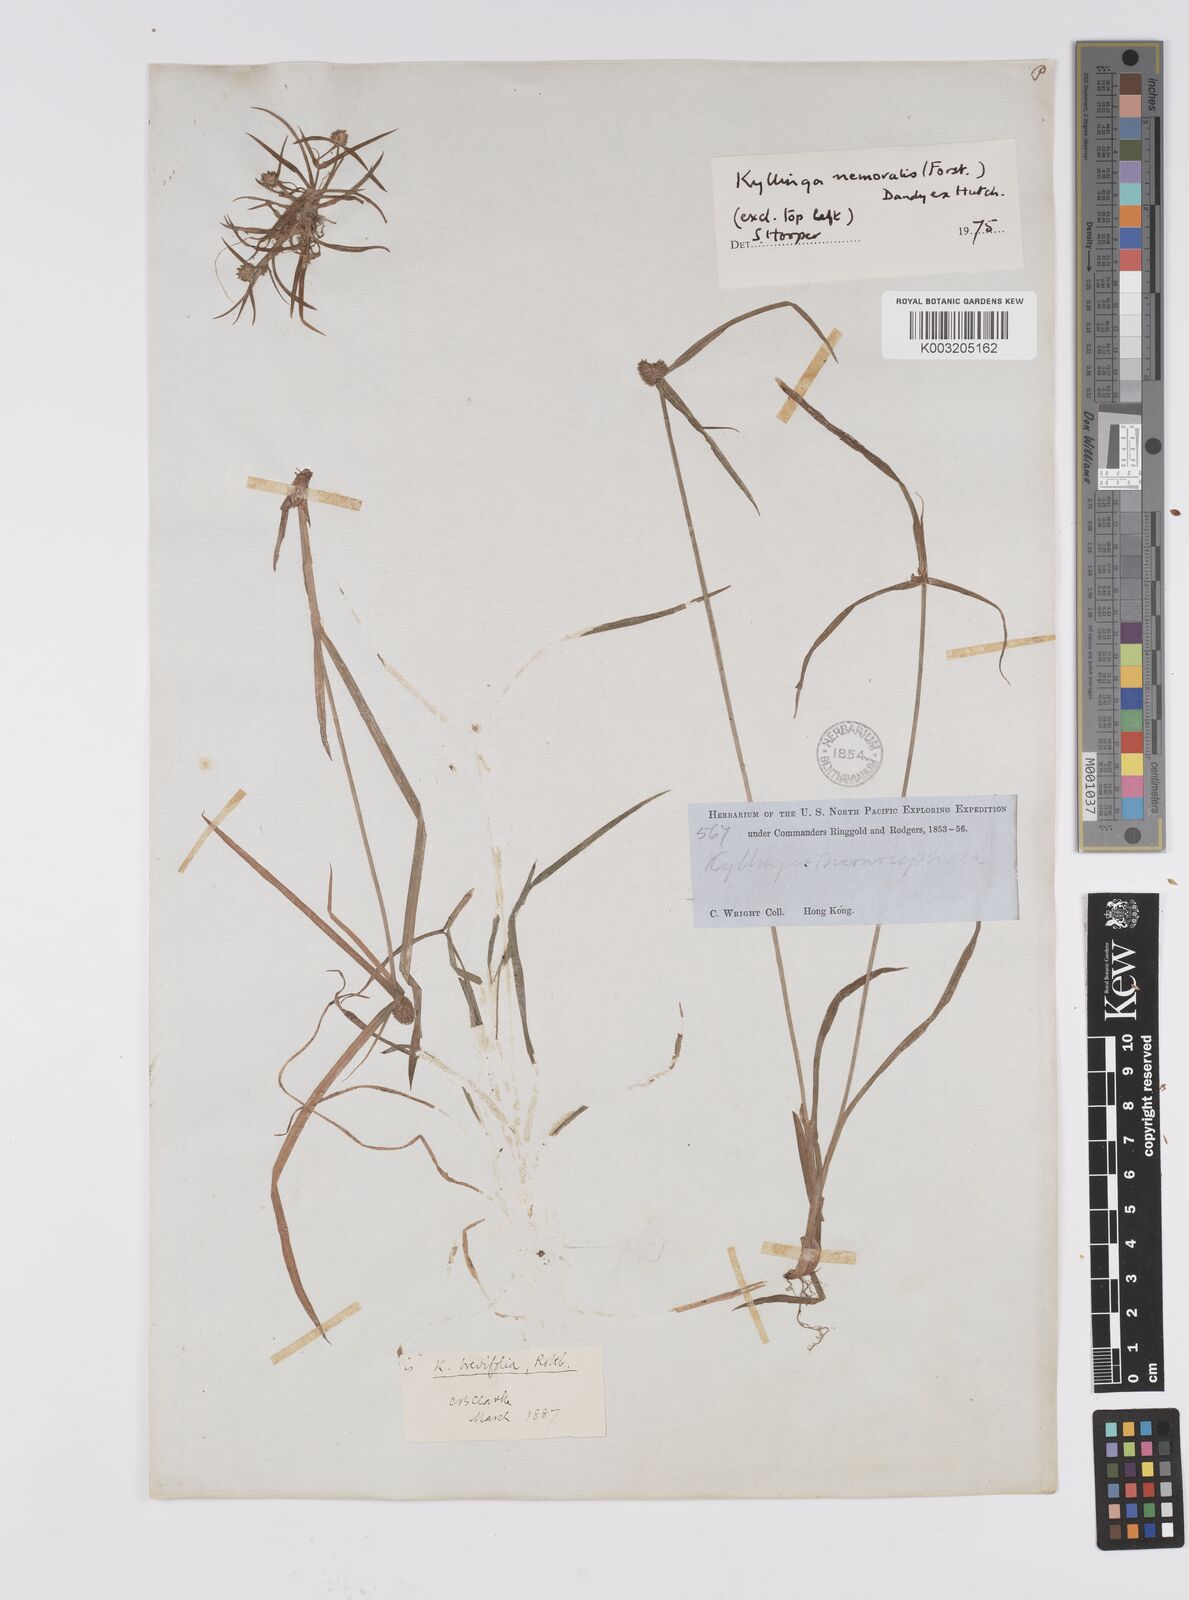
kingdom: Plantae
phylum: Tracheophyta
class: Liliopsida
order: Poales
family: Cyperaceae
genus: Cyperus
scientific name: Cyperus nemoralis
